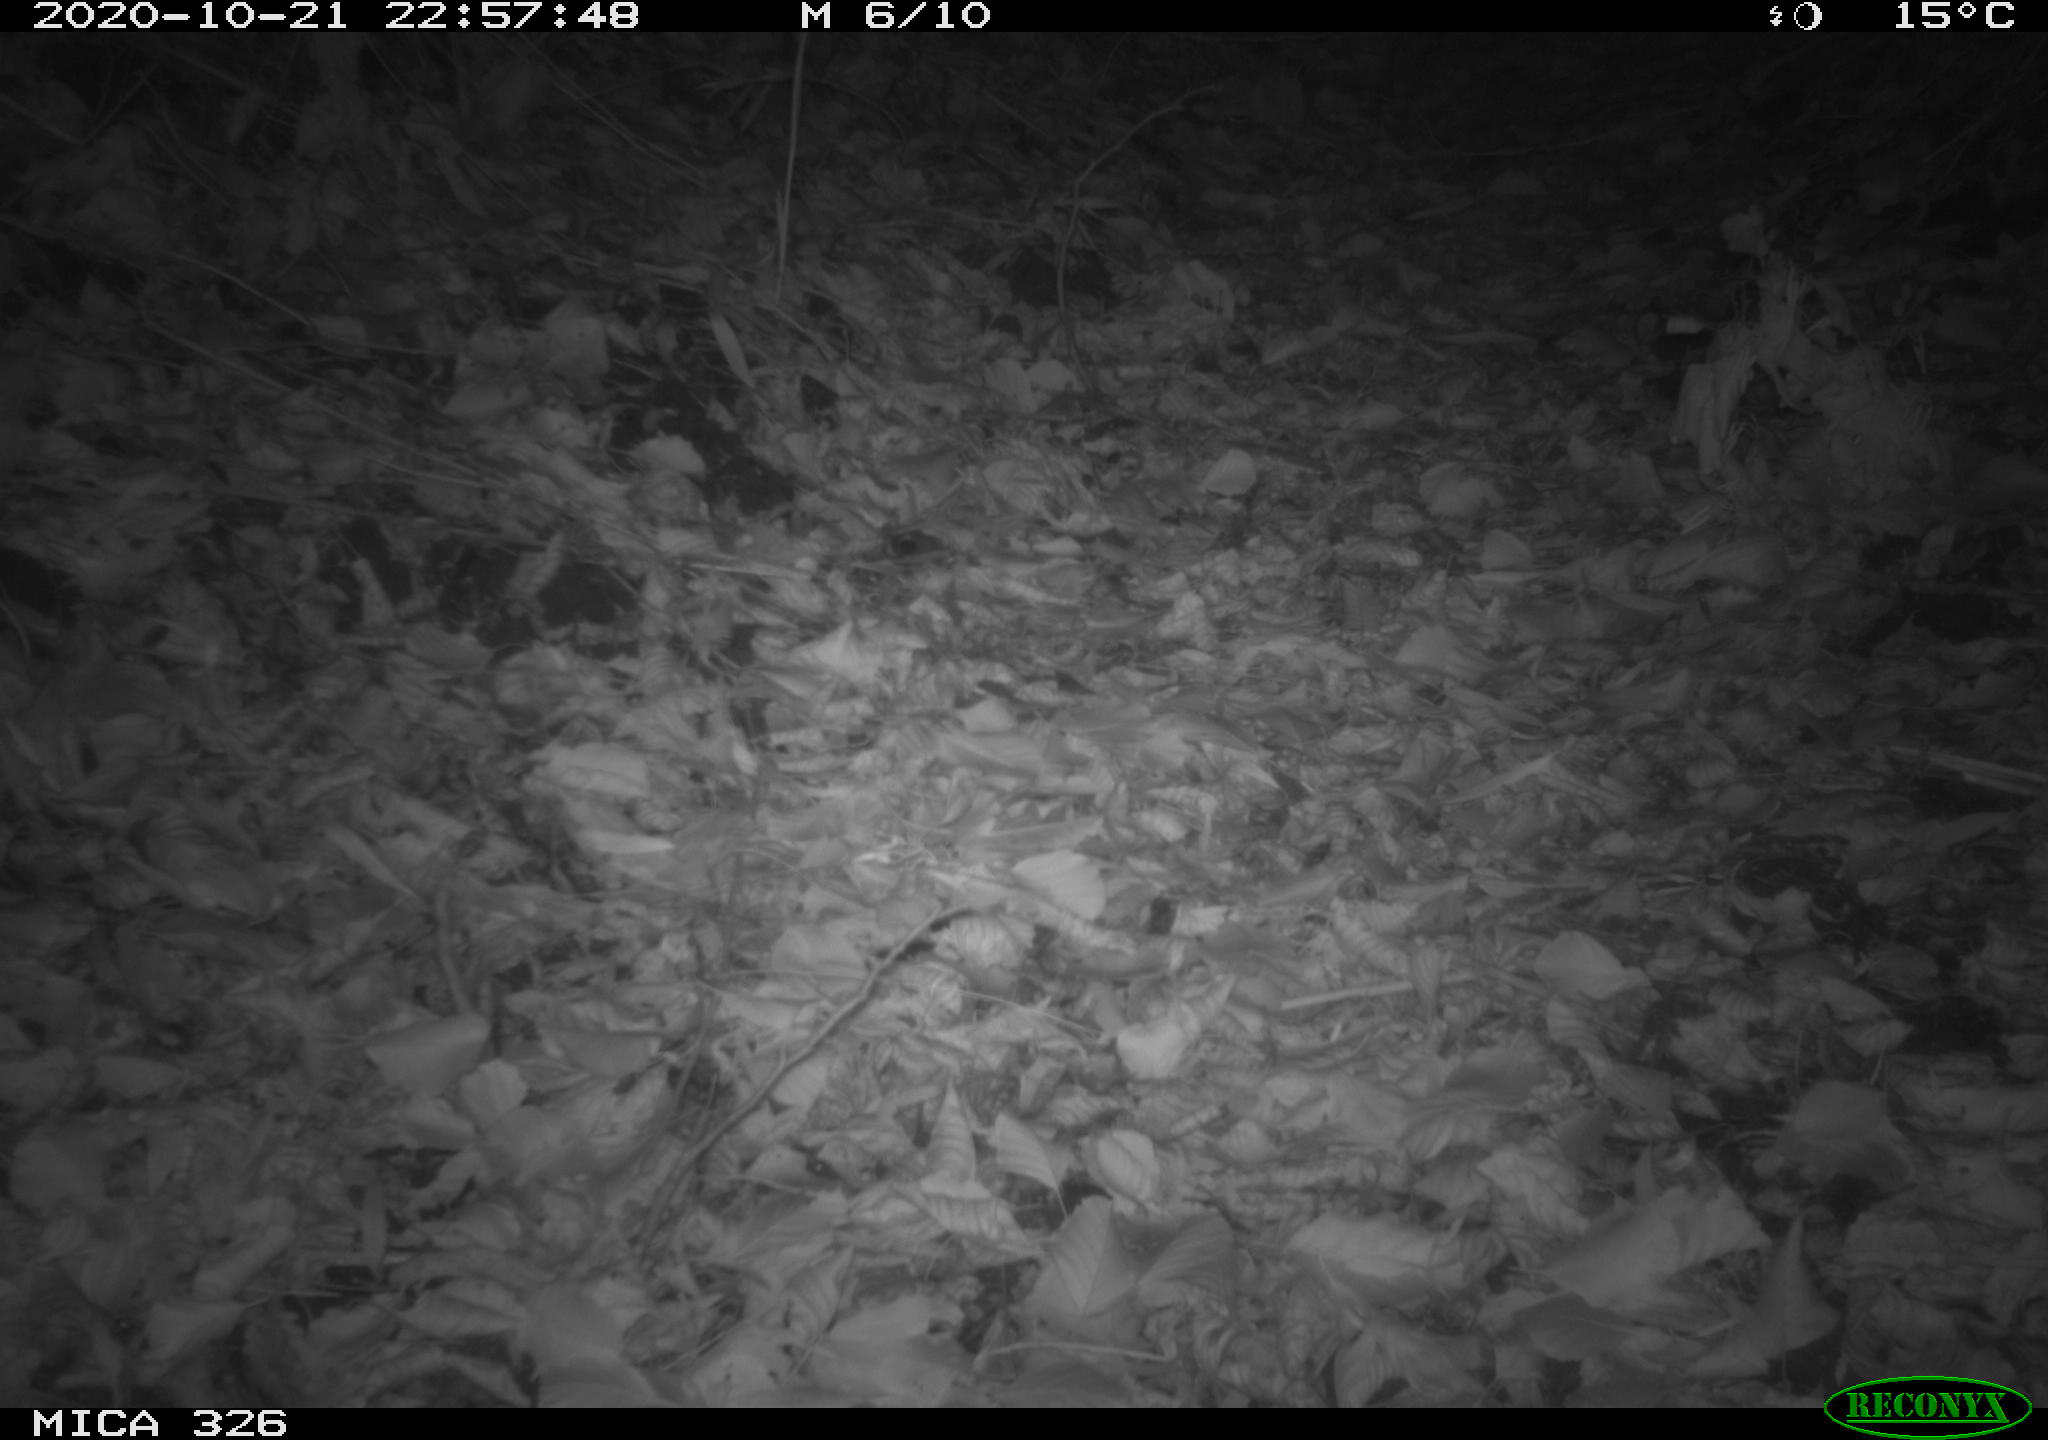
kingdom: Animalia
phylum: Chordata
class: Mammalia
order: Carnivora
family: Mustelidae
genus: Martes
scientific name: Martes foina
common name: Beech marten
